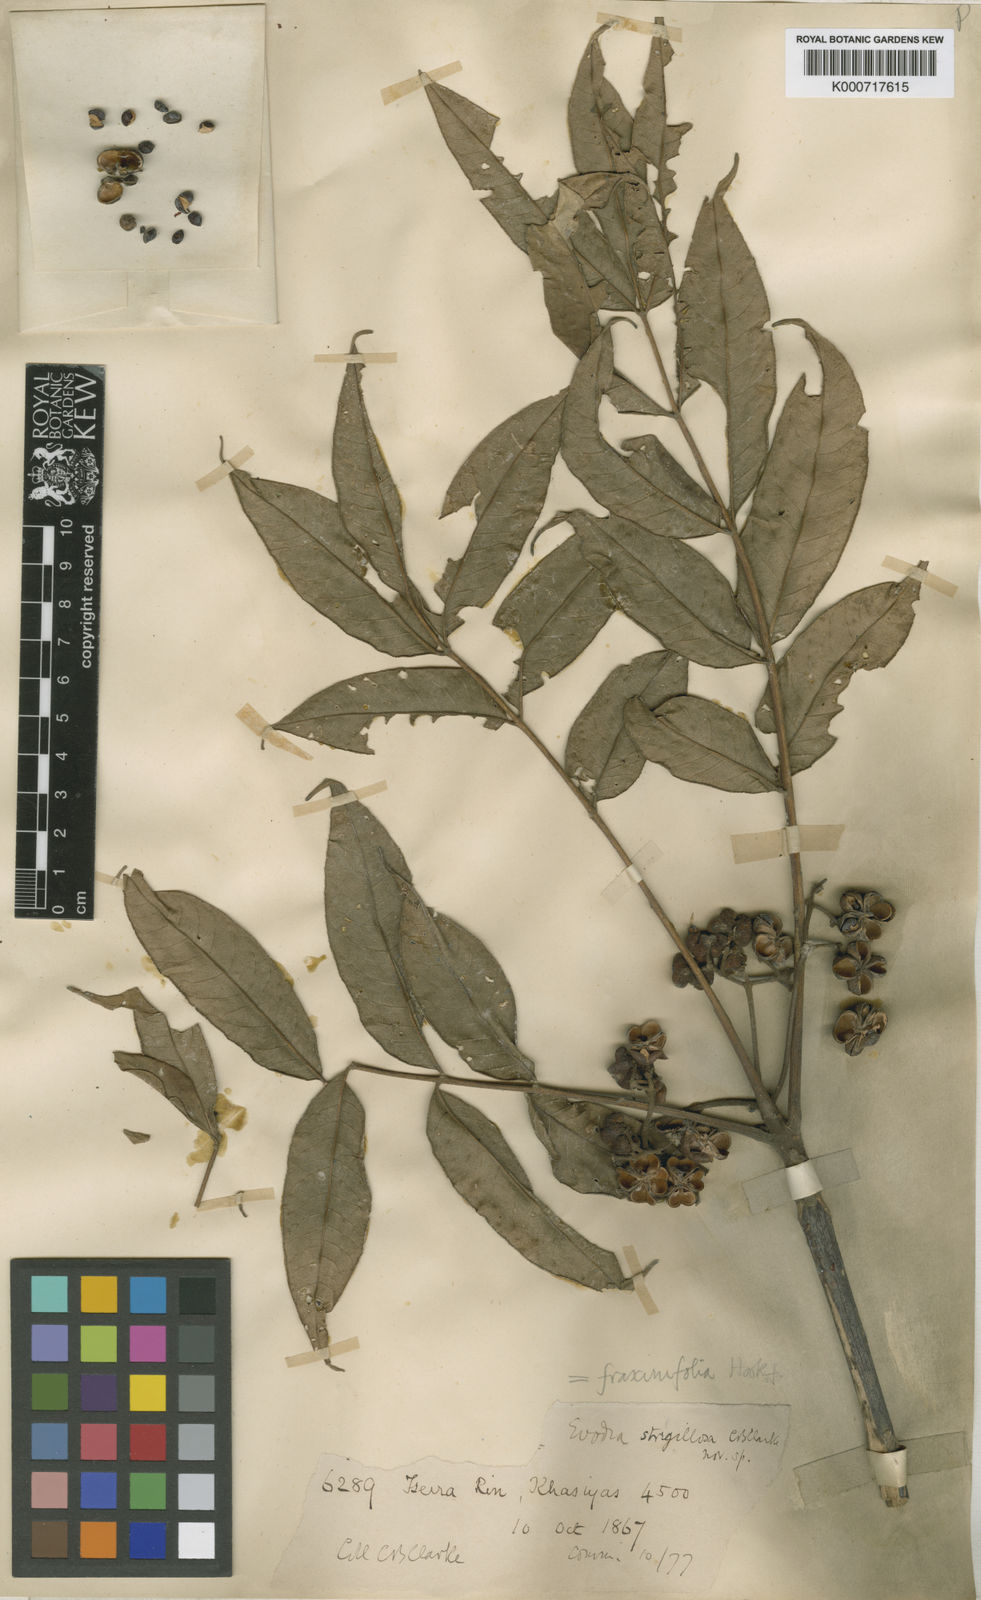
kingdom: Plantae
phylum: Tracheophyta
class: Magnoliopsida
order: Sapindales
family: Rutaceae
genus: Tetradium
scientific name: Tetradium fraxinifolium
